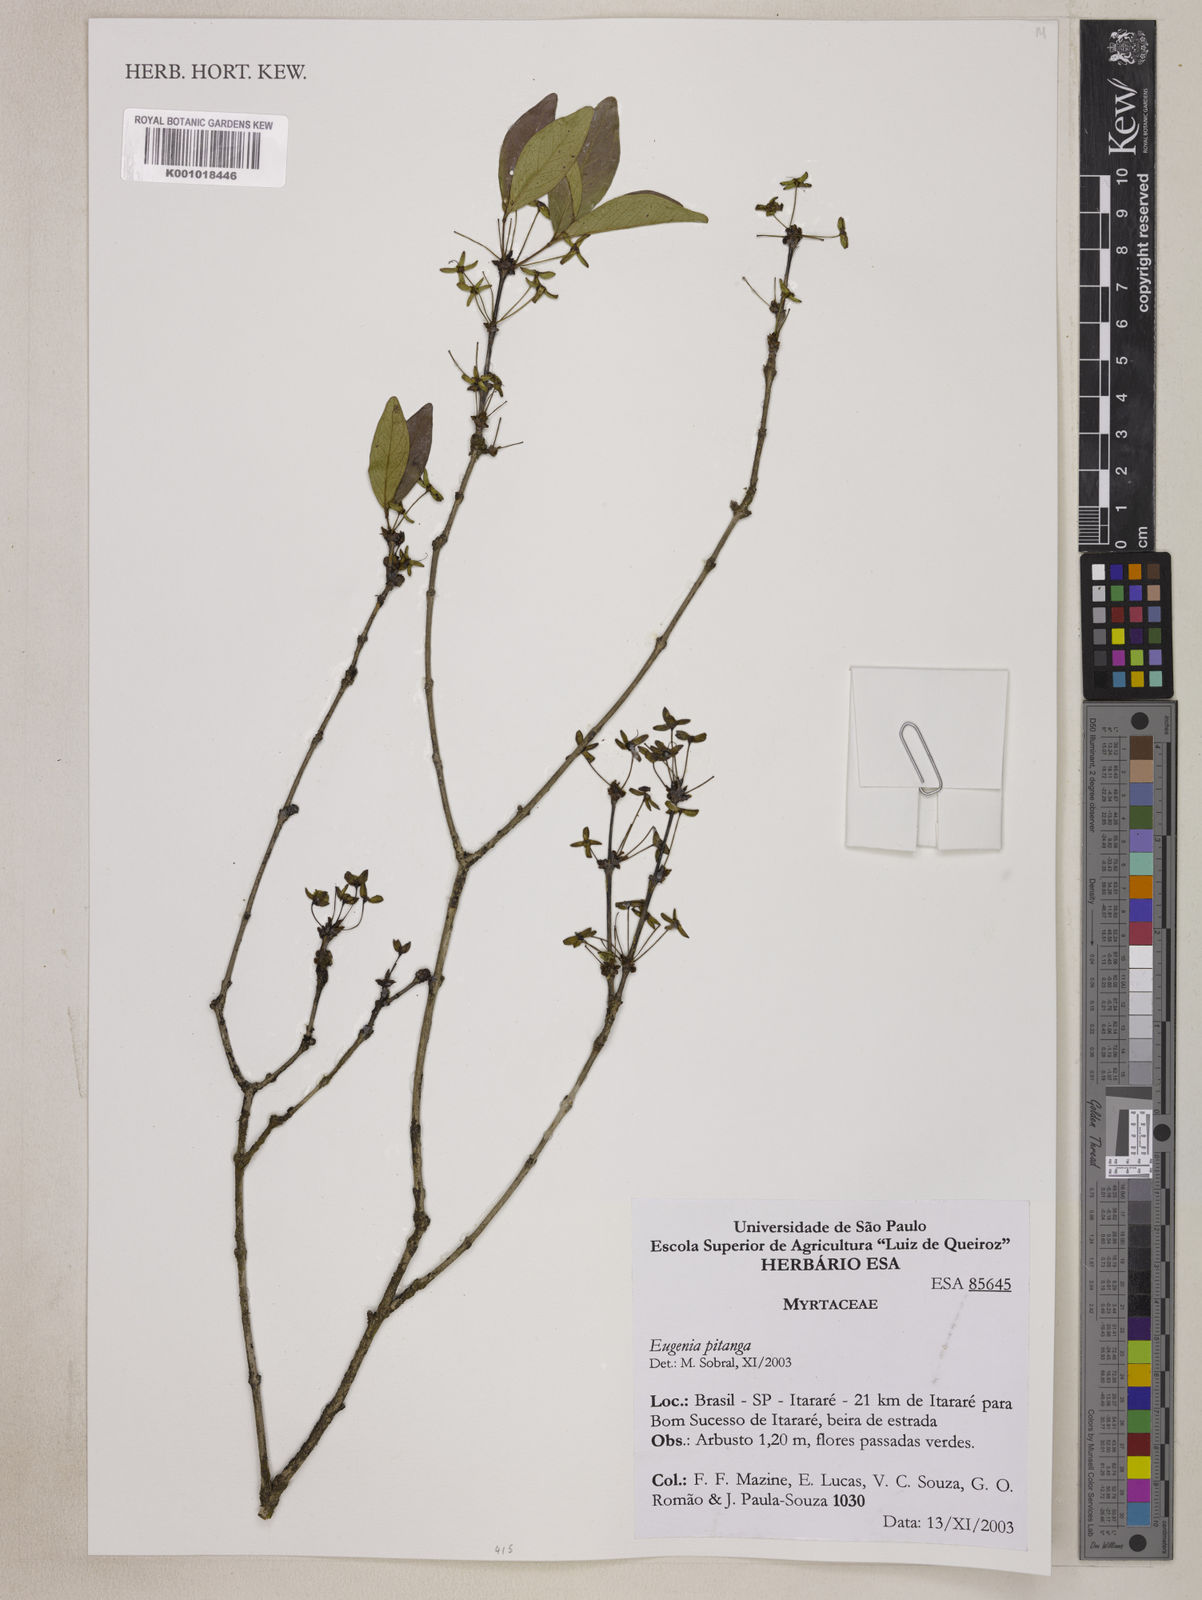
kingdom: Plantae
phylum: Tracheophyta
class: Magnoliopsida
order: Myrtales
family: Myrtaceae
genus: Eugenia
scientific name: Eugenia
